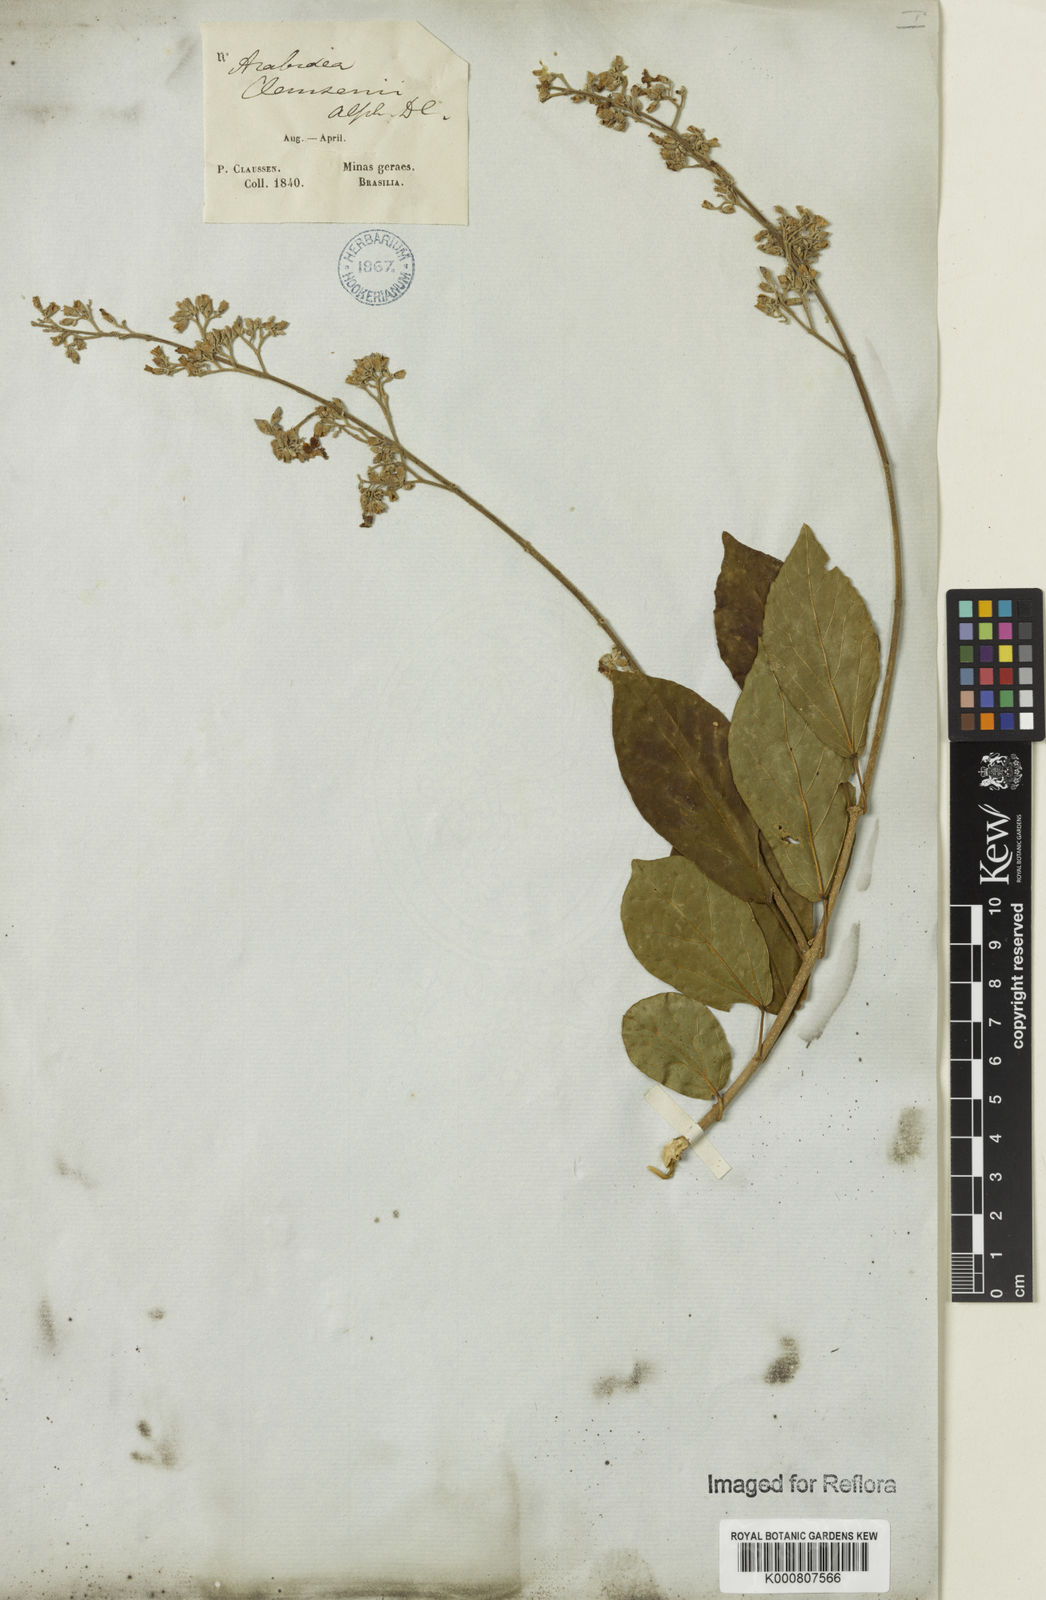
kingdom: Plantae
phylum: Tracheophyta
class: Magnoliopsida
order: Lamiales
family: Bignoniaceae
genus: Xylophragma
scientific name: Xylophragma claussenii
